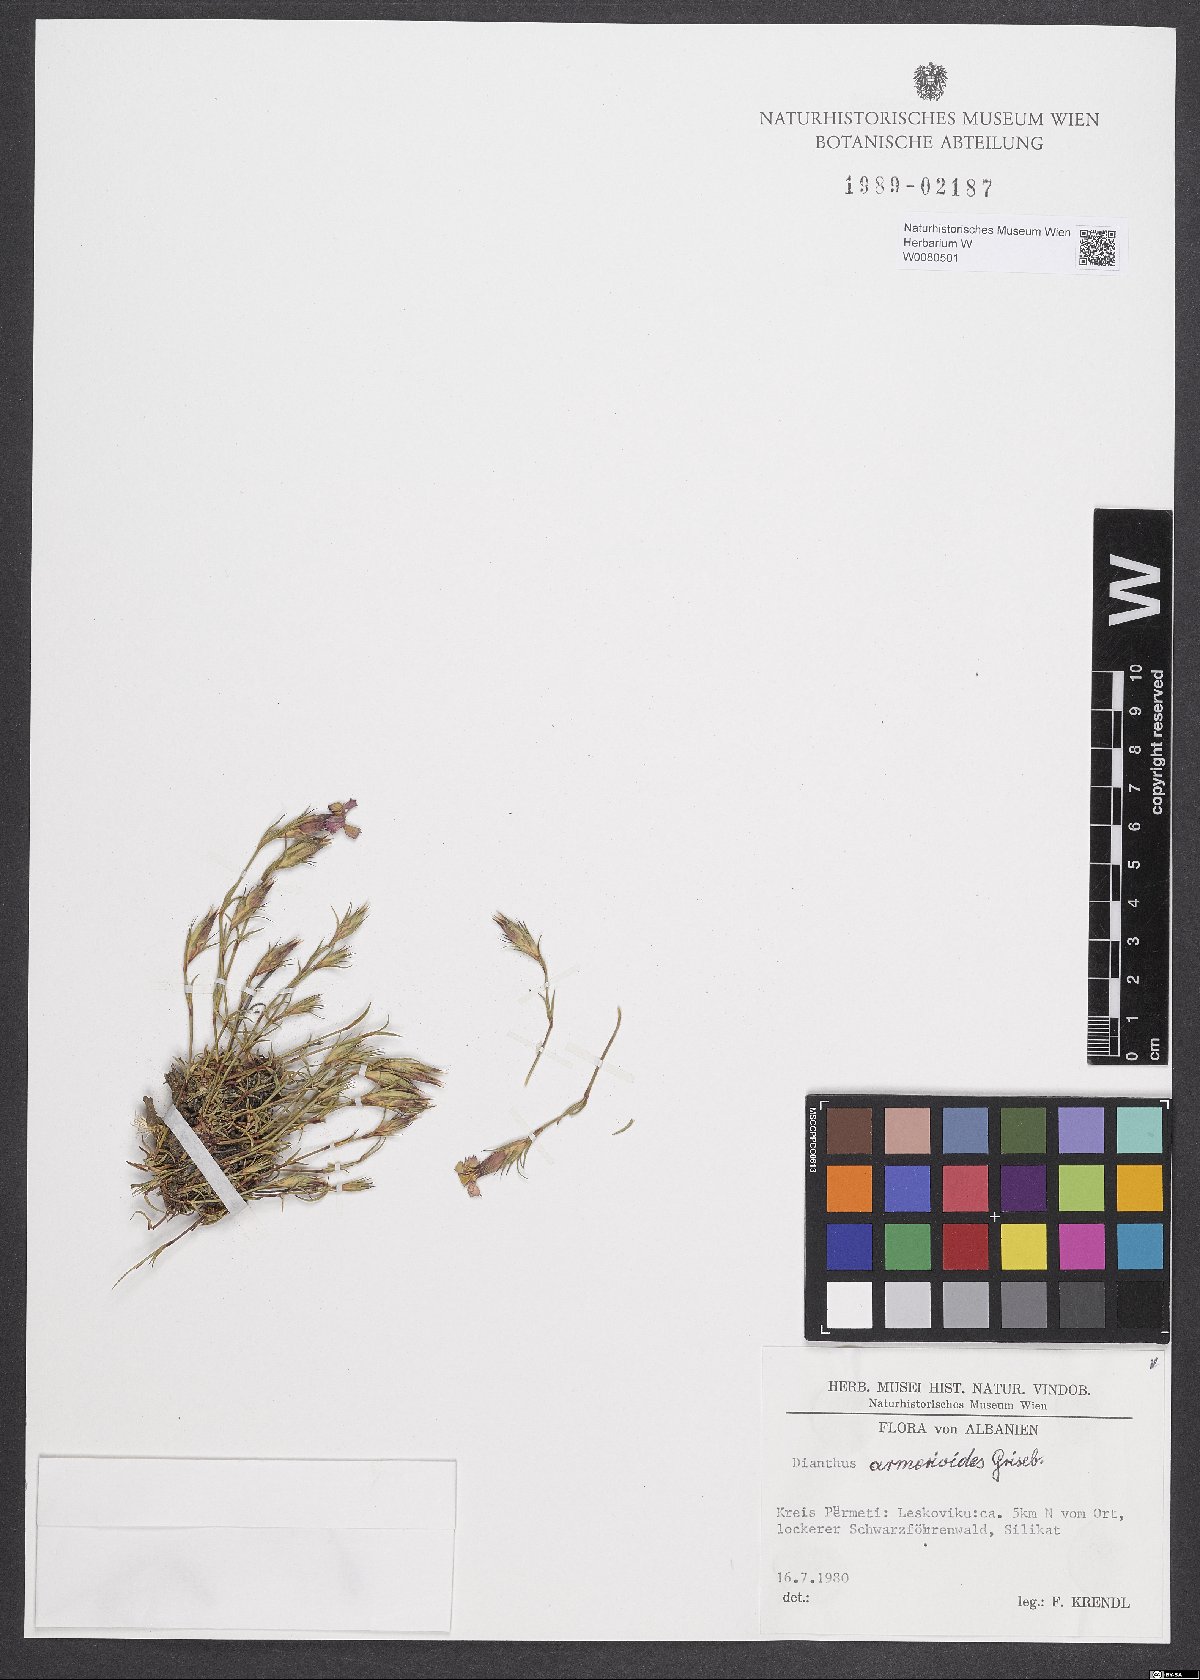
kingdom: Plantae
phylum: Tracheophyta
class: Magnoliopsida
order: Caryophyllales
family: Caryophyllaceae
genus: Dianthus
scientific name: Dianthus armerioides
